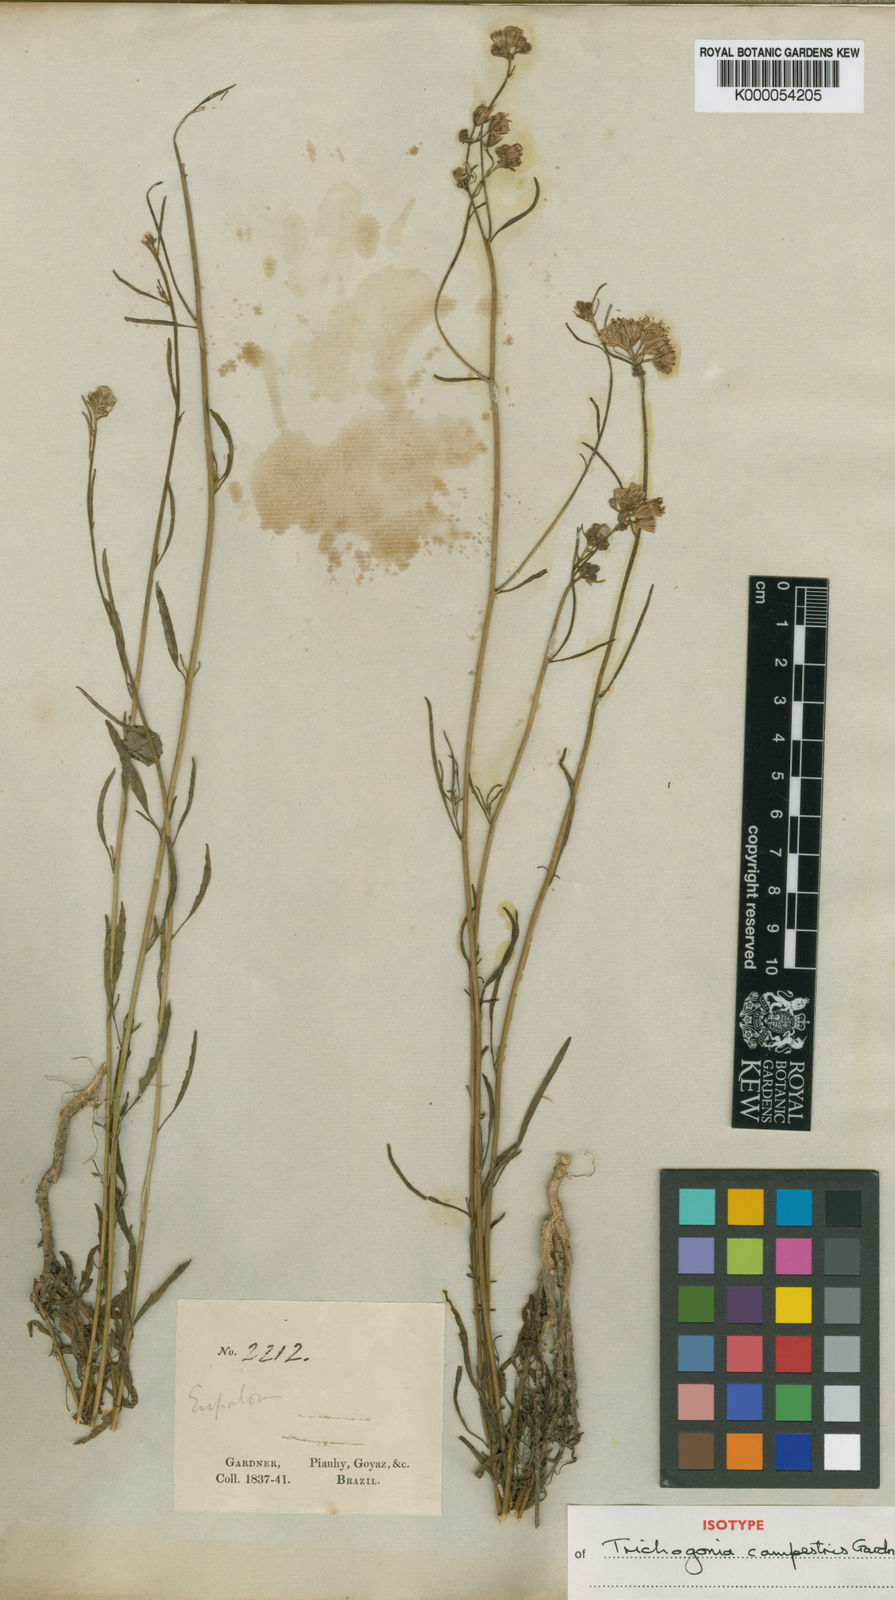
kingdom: Plantae
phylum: Tracheophyta
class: Magnoliopsida
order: Asterales
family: Asteraceae
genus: Trichogonia
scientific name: Trichogonia campestris
